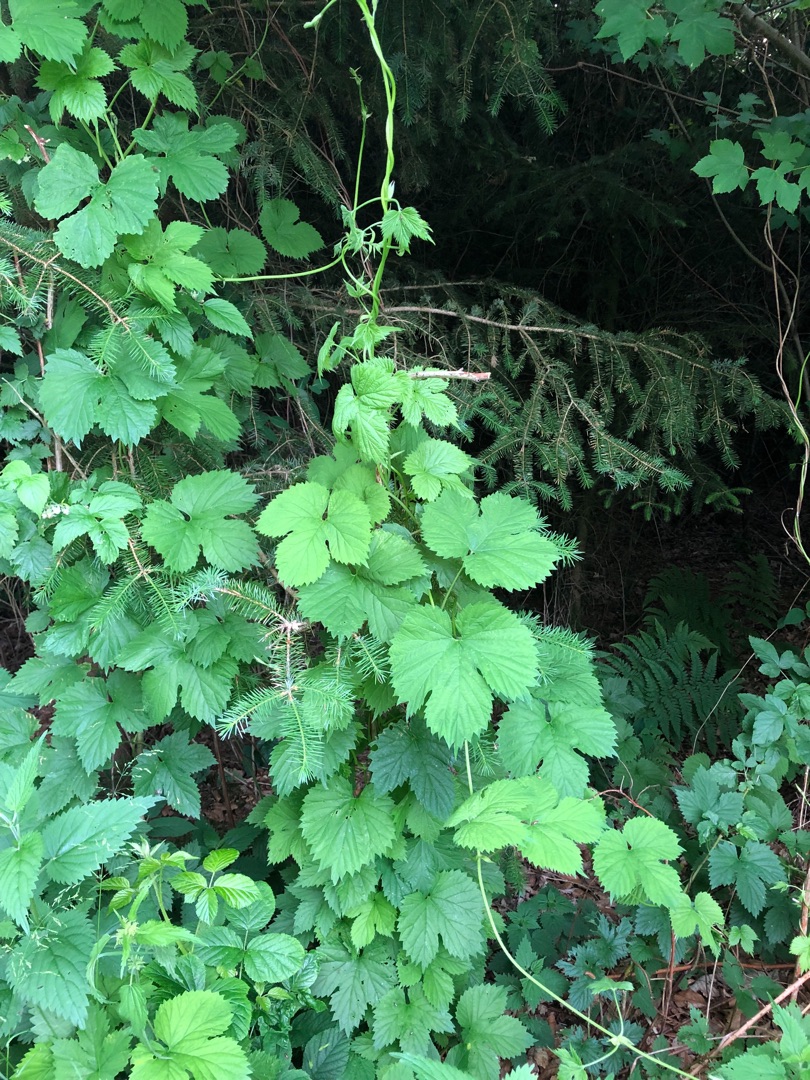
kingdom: Plantae
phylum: Tracheophyta
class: Magnoliopsida
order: Rosales
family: Cannabaceae
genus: Humulus
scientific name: Humulus lupulus
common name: Humle
